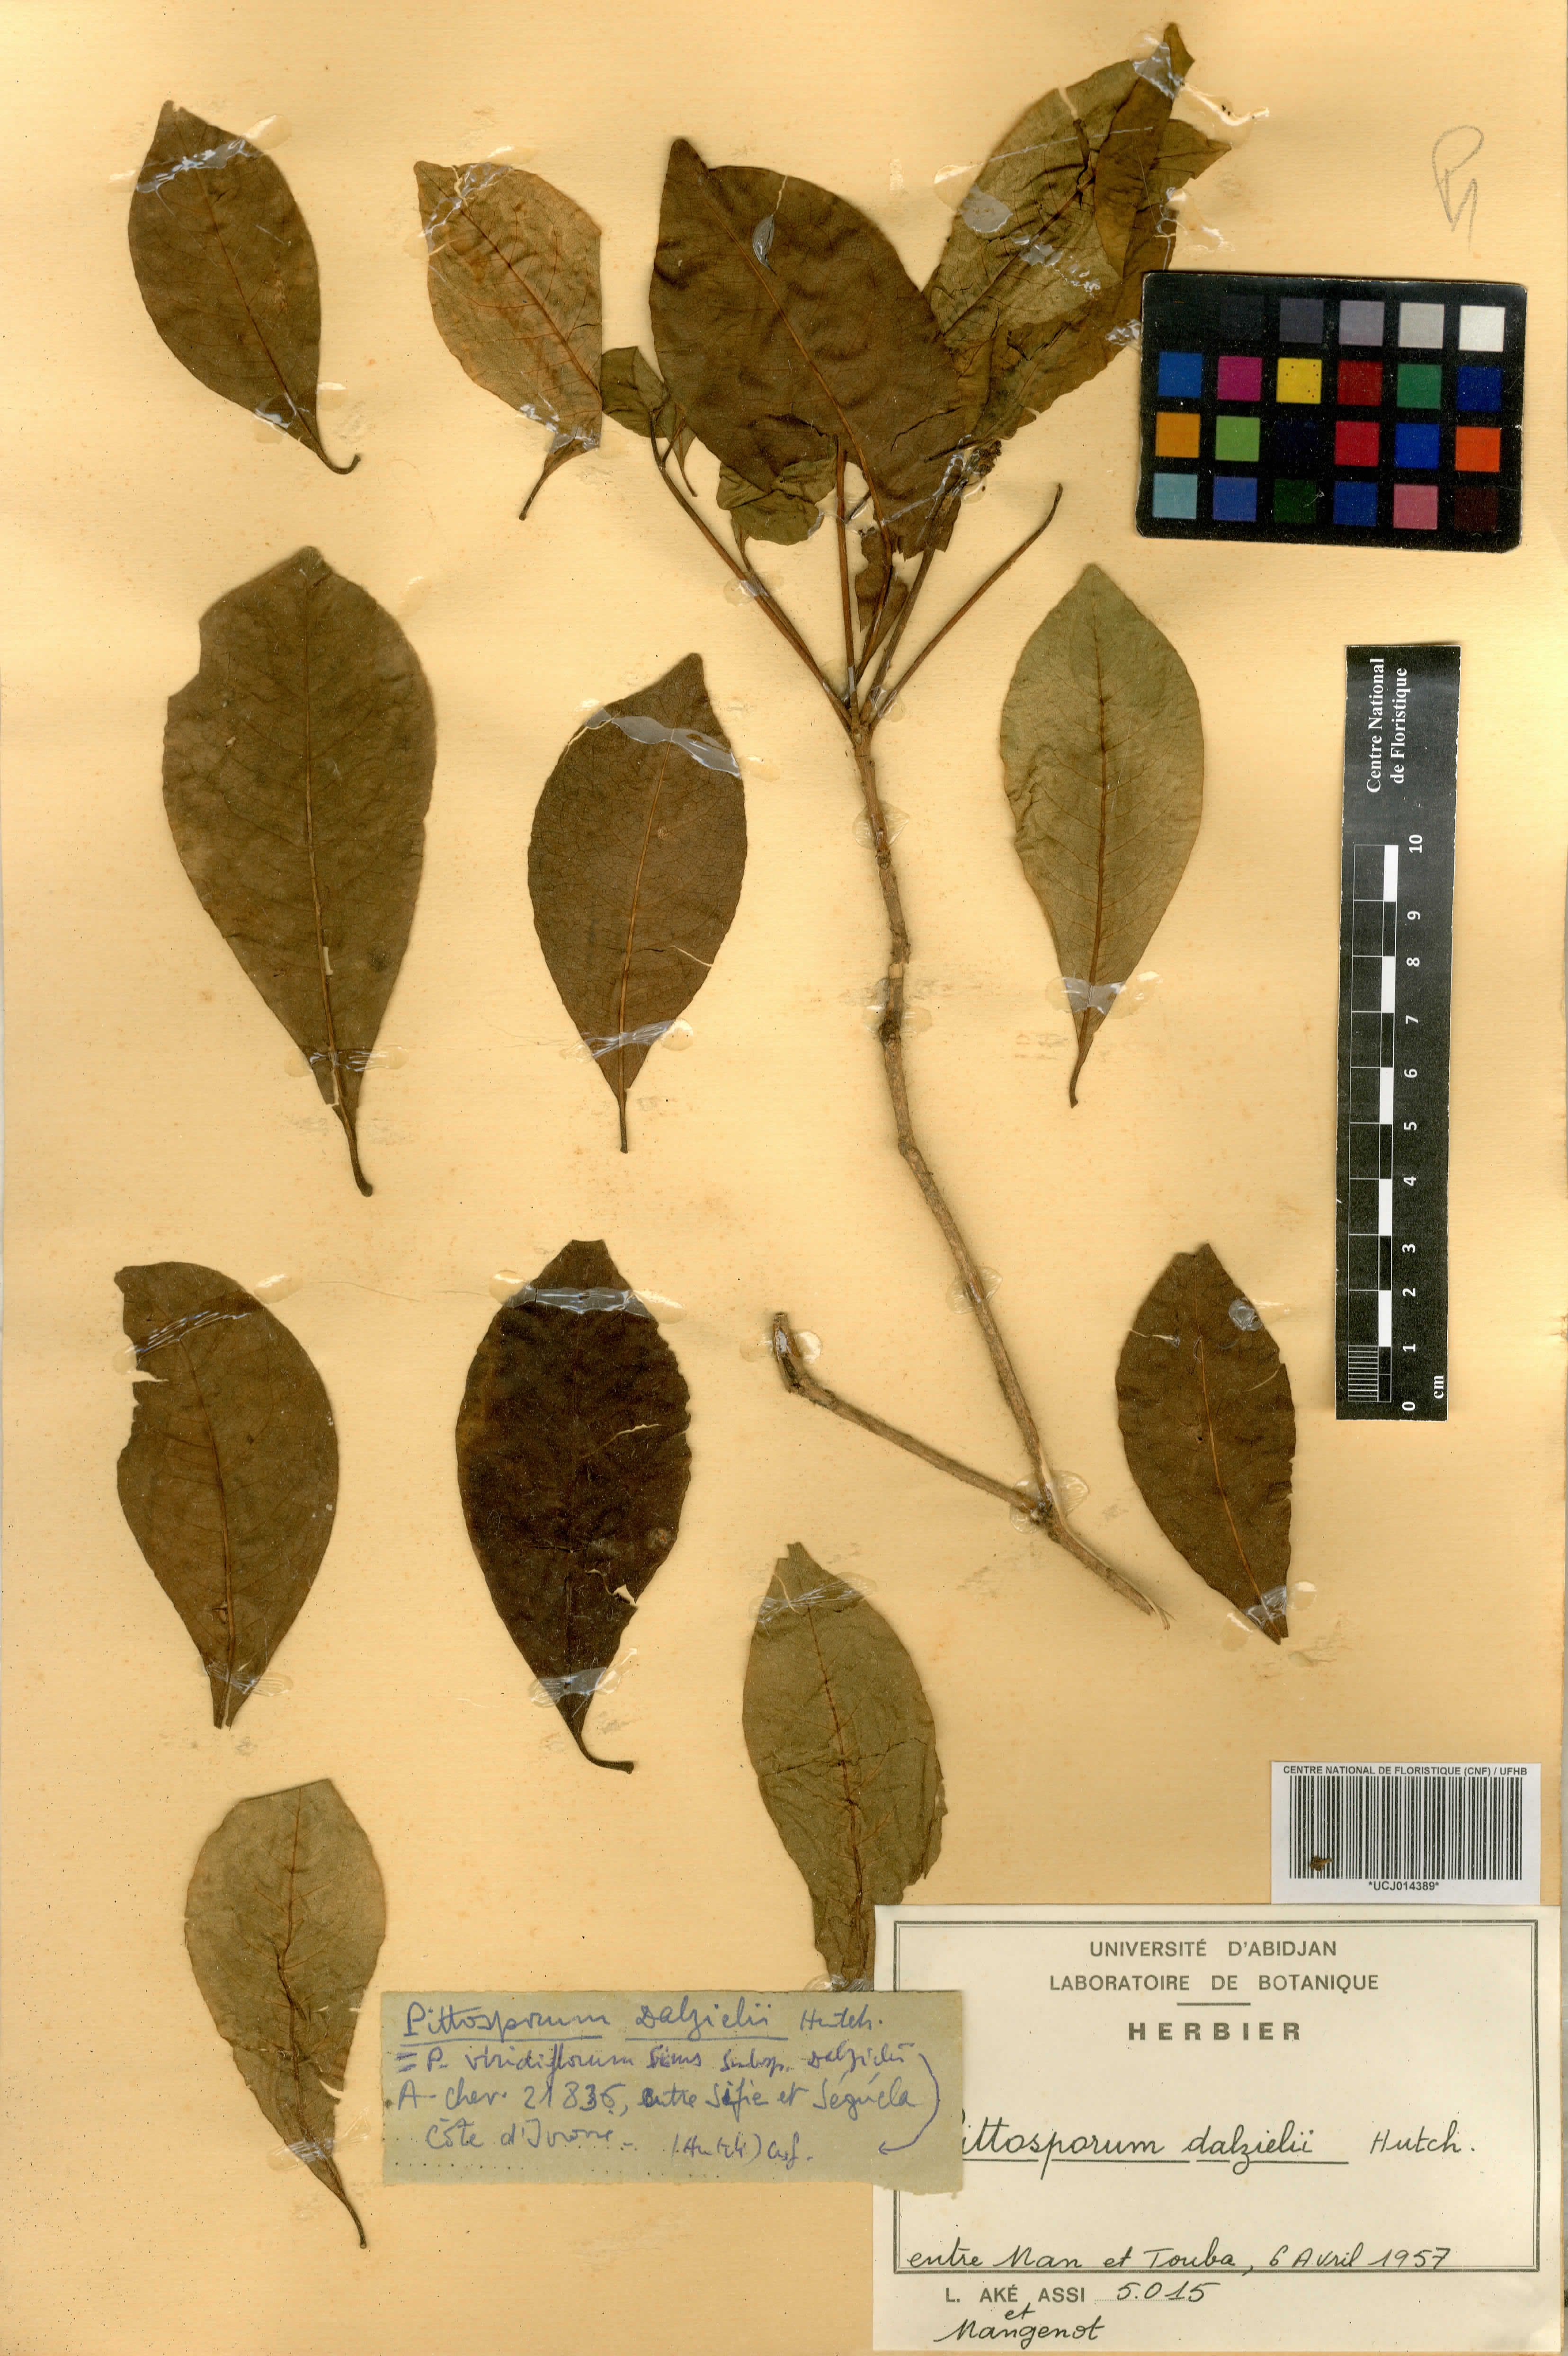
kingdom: Plantae
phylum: Tracheophyta
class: Magnoliopsida
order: Apiales
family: Pittosporaceae
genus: Pittosporum
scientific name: Pittosporum viridiflorum
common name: Cape cheesewood
